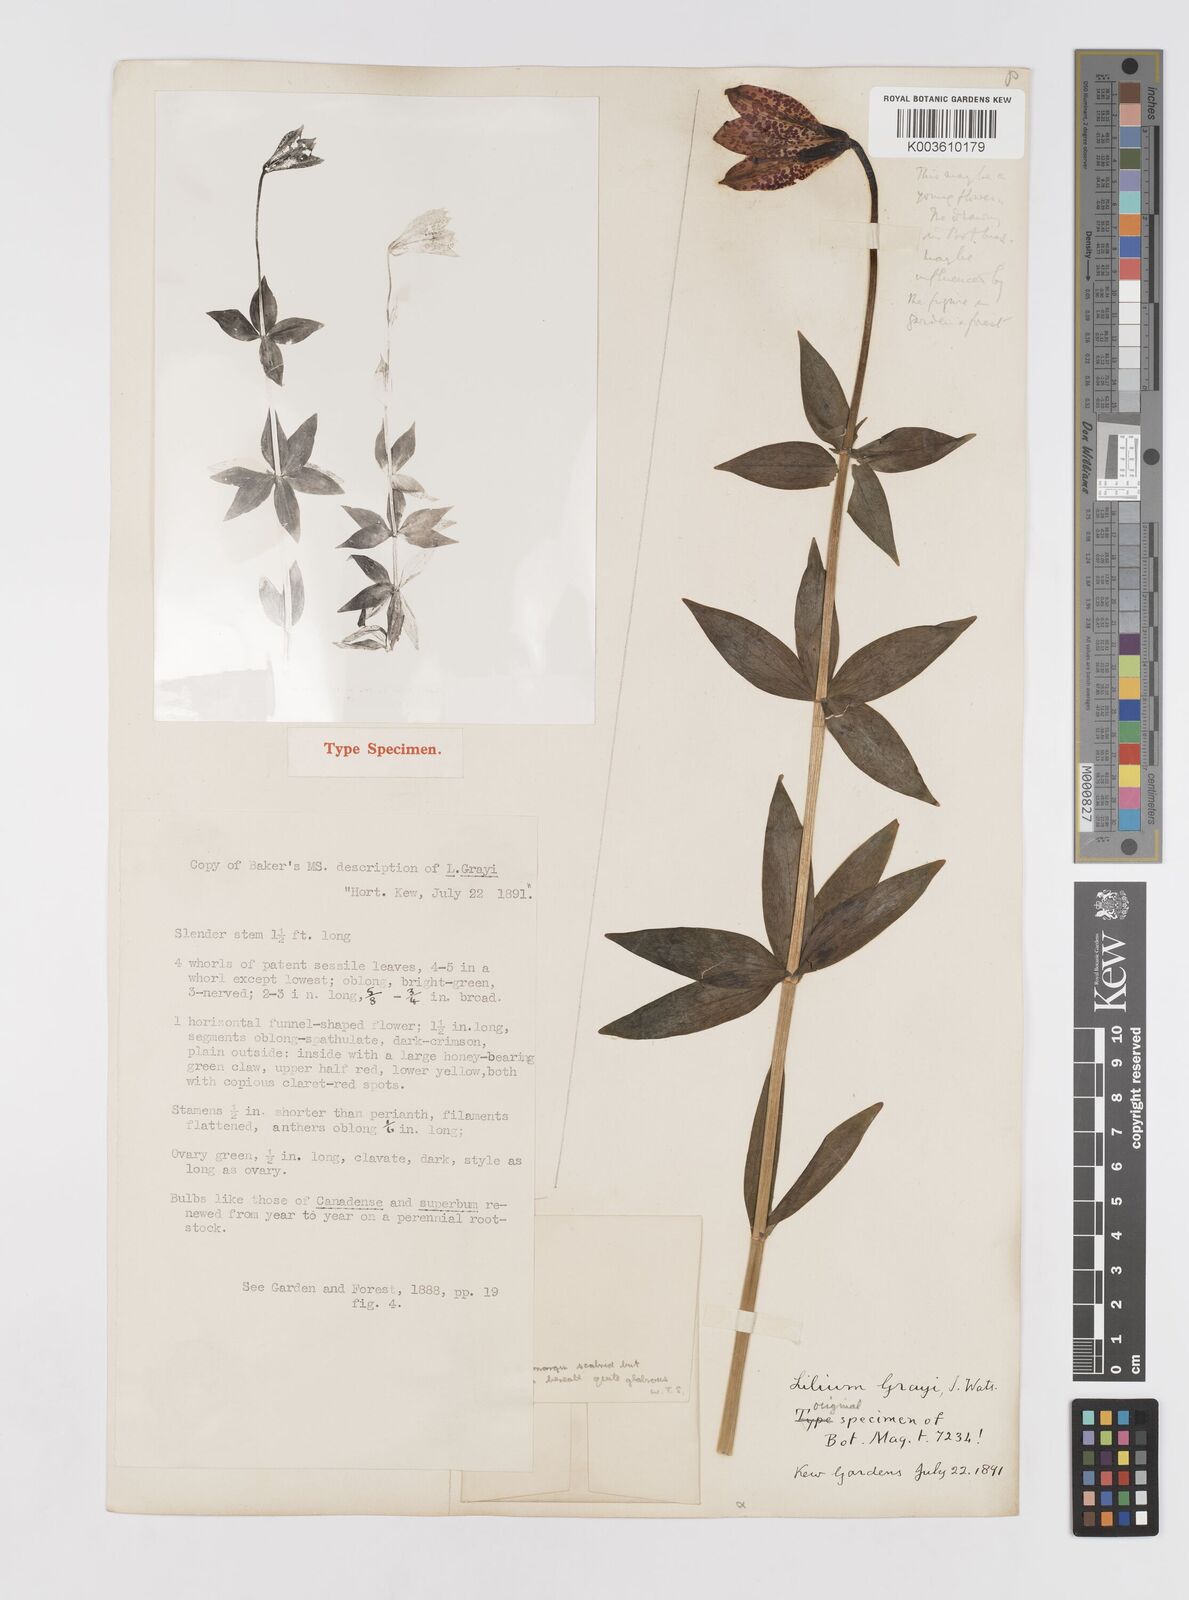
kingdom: Plantae
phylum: Tracheophyta
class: Liliopsida
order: Liliales
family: Liliaceae
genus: Lilium
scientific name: Lilium grayi
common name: Gray's lily
